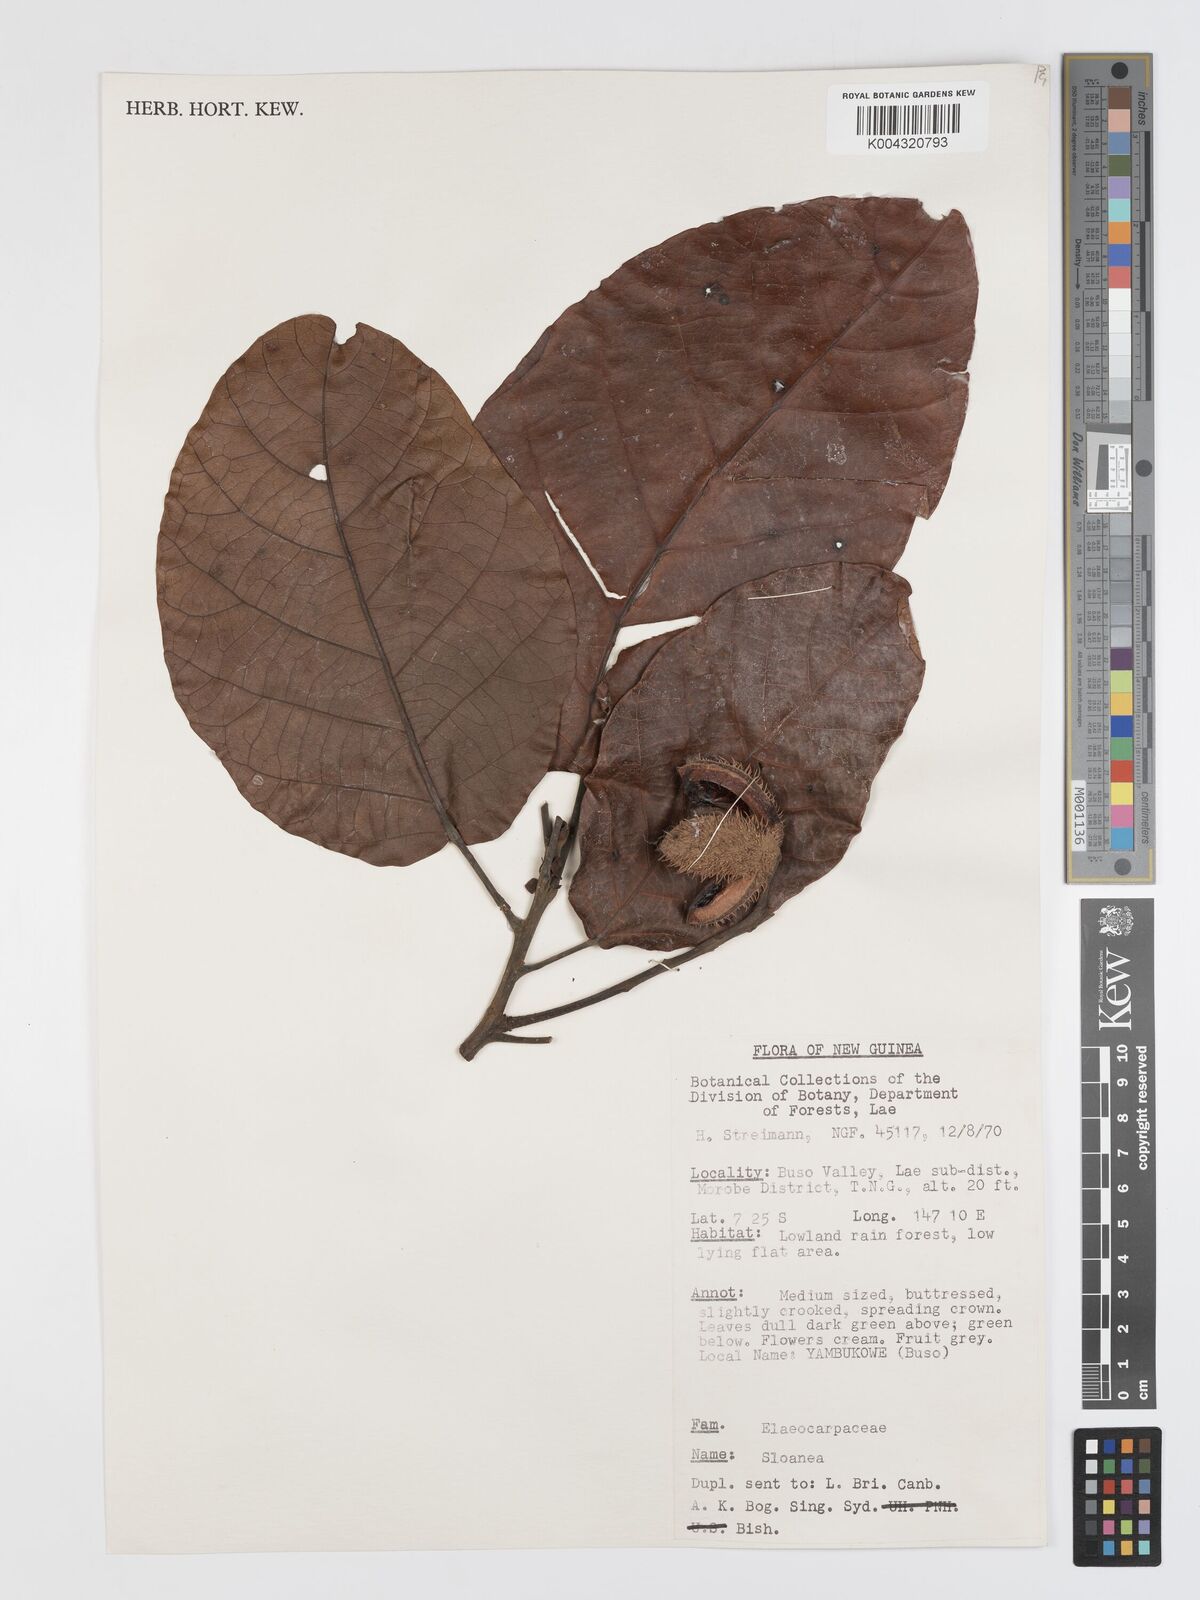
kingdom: Plantae
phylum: Tracheophyta
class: Magnoliopsida
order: Oxalidales
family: Elaeocarpaceae
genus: Sloanea
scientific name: Sloanea sogerensis
